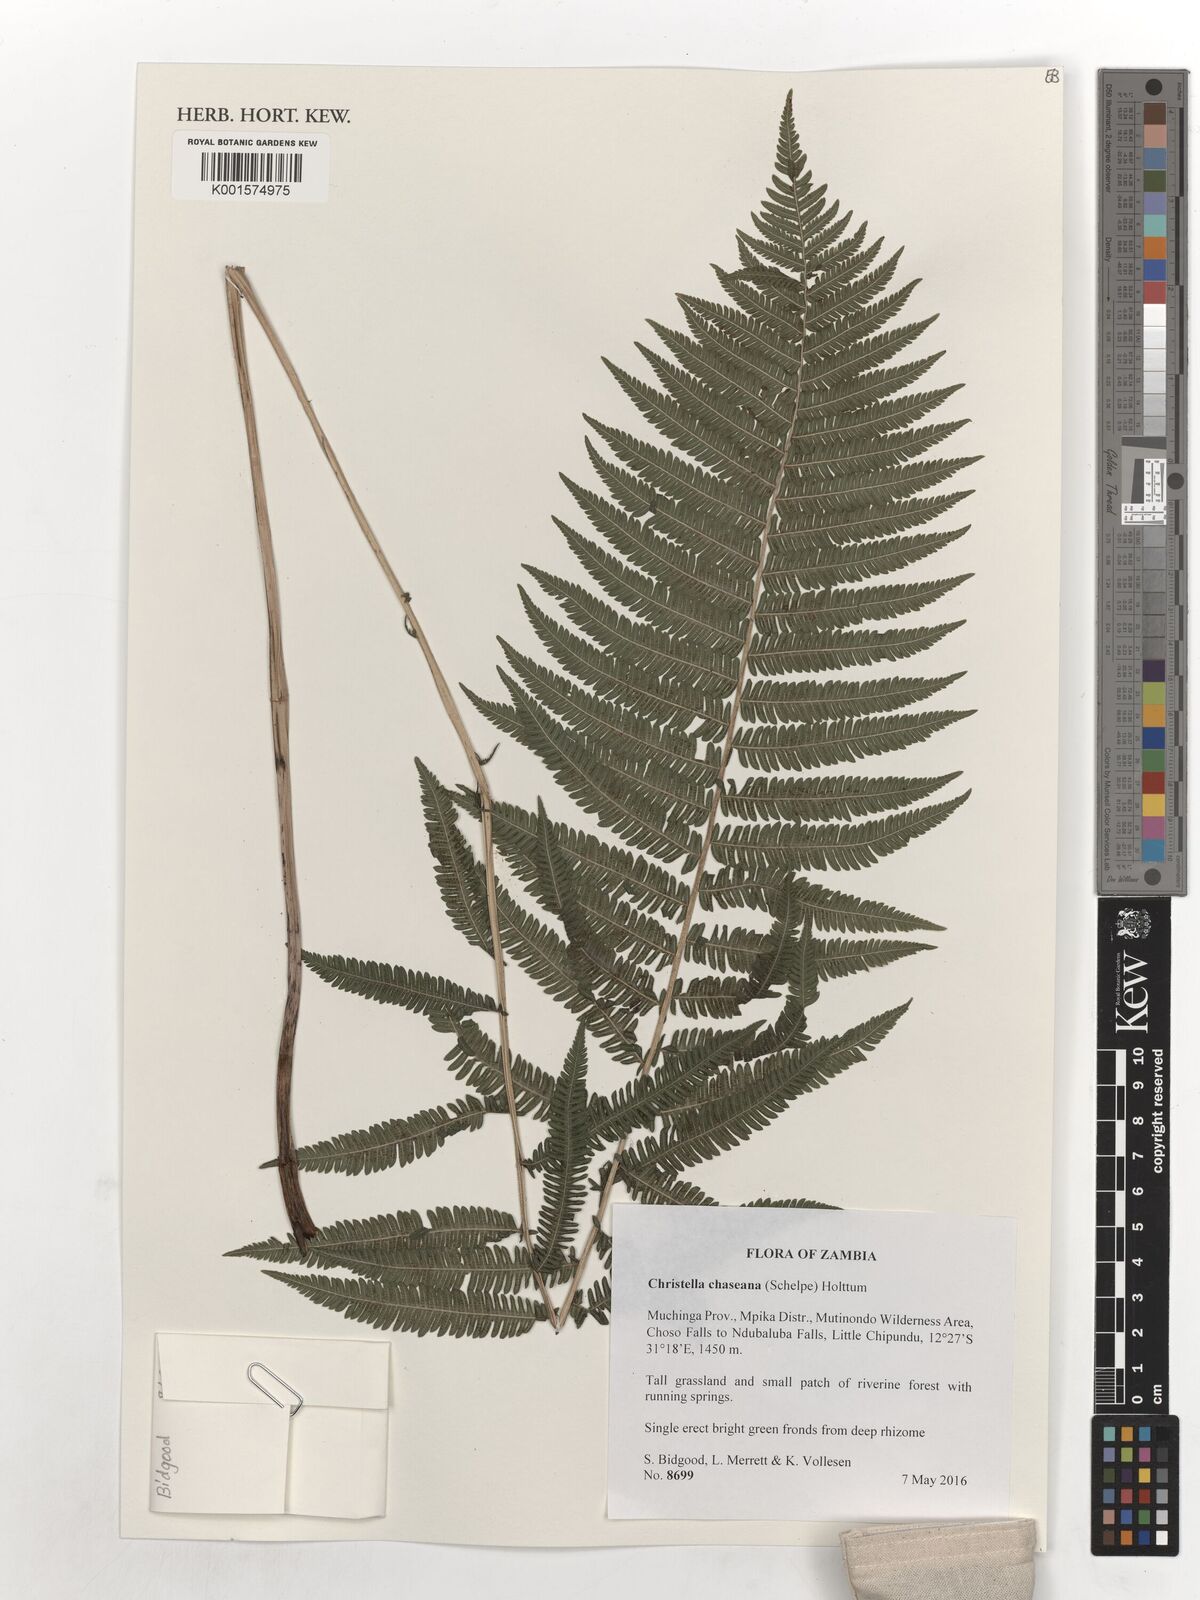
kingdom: Plantae
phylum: Tracheophyta
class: Polypodiopsida
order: Polypodiales
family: Thelypteridaceae
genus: Christella
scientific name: Christella chaseana
